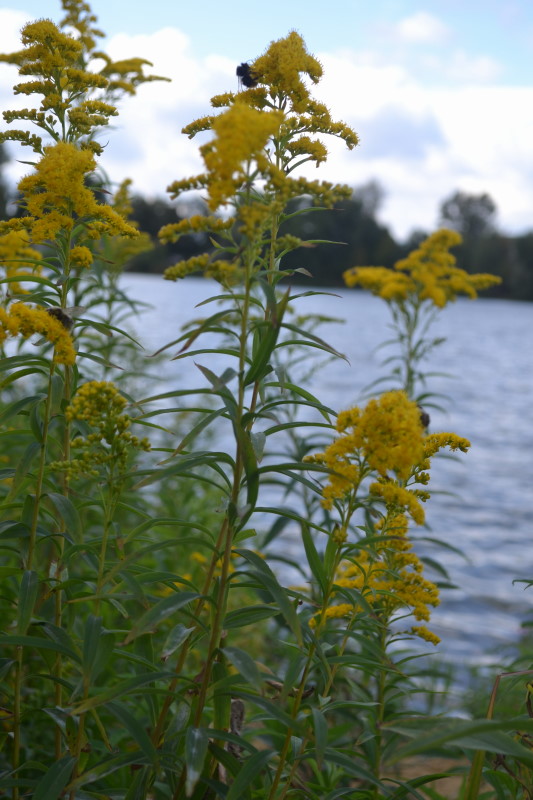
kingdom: Plantae
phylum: Tracheophyta
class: Magnoliopsida
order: Asterales
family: Asteraceae
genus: Solidago
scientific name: Solidago gigantea
